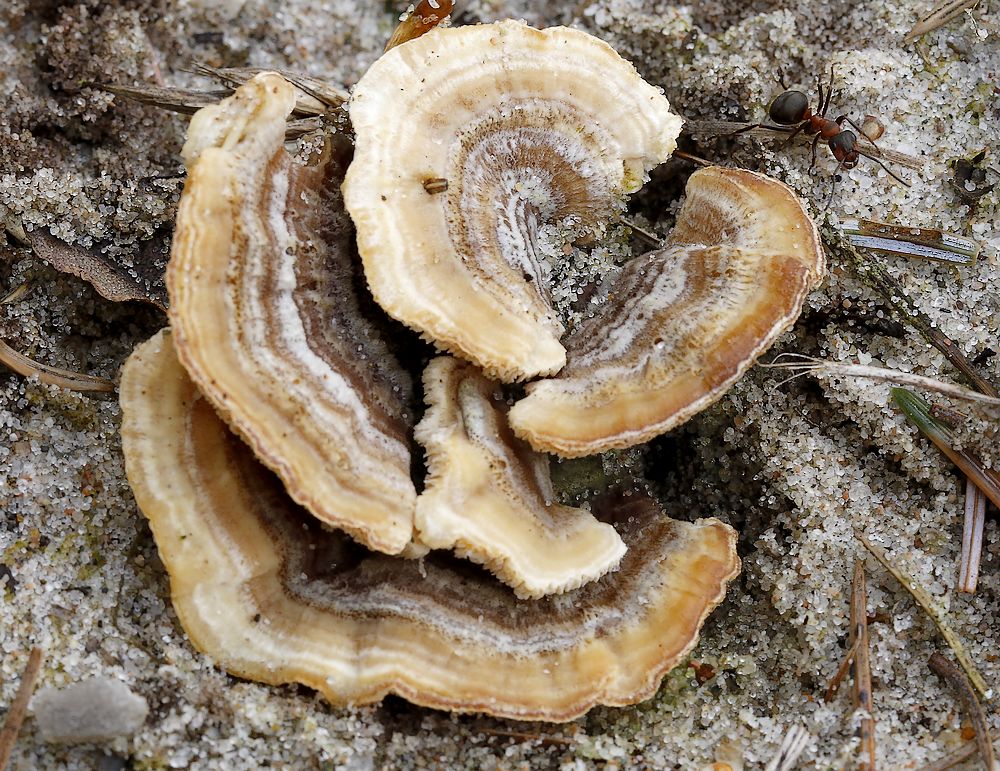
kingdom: Fungi
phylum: Basidiomycota
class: Agaricomycetes
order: Polyporales
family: Polyporaceae
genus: Trametes
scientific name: Trametes
